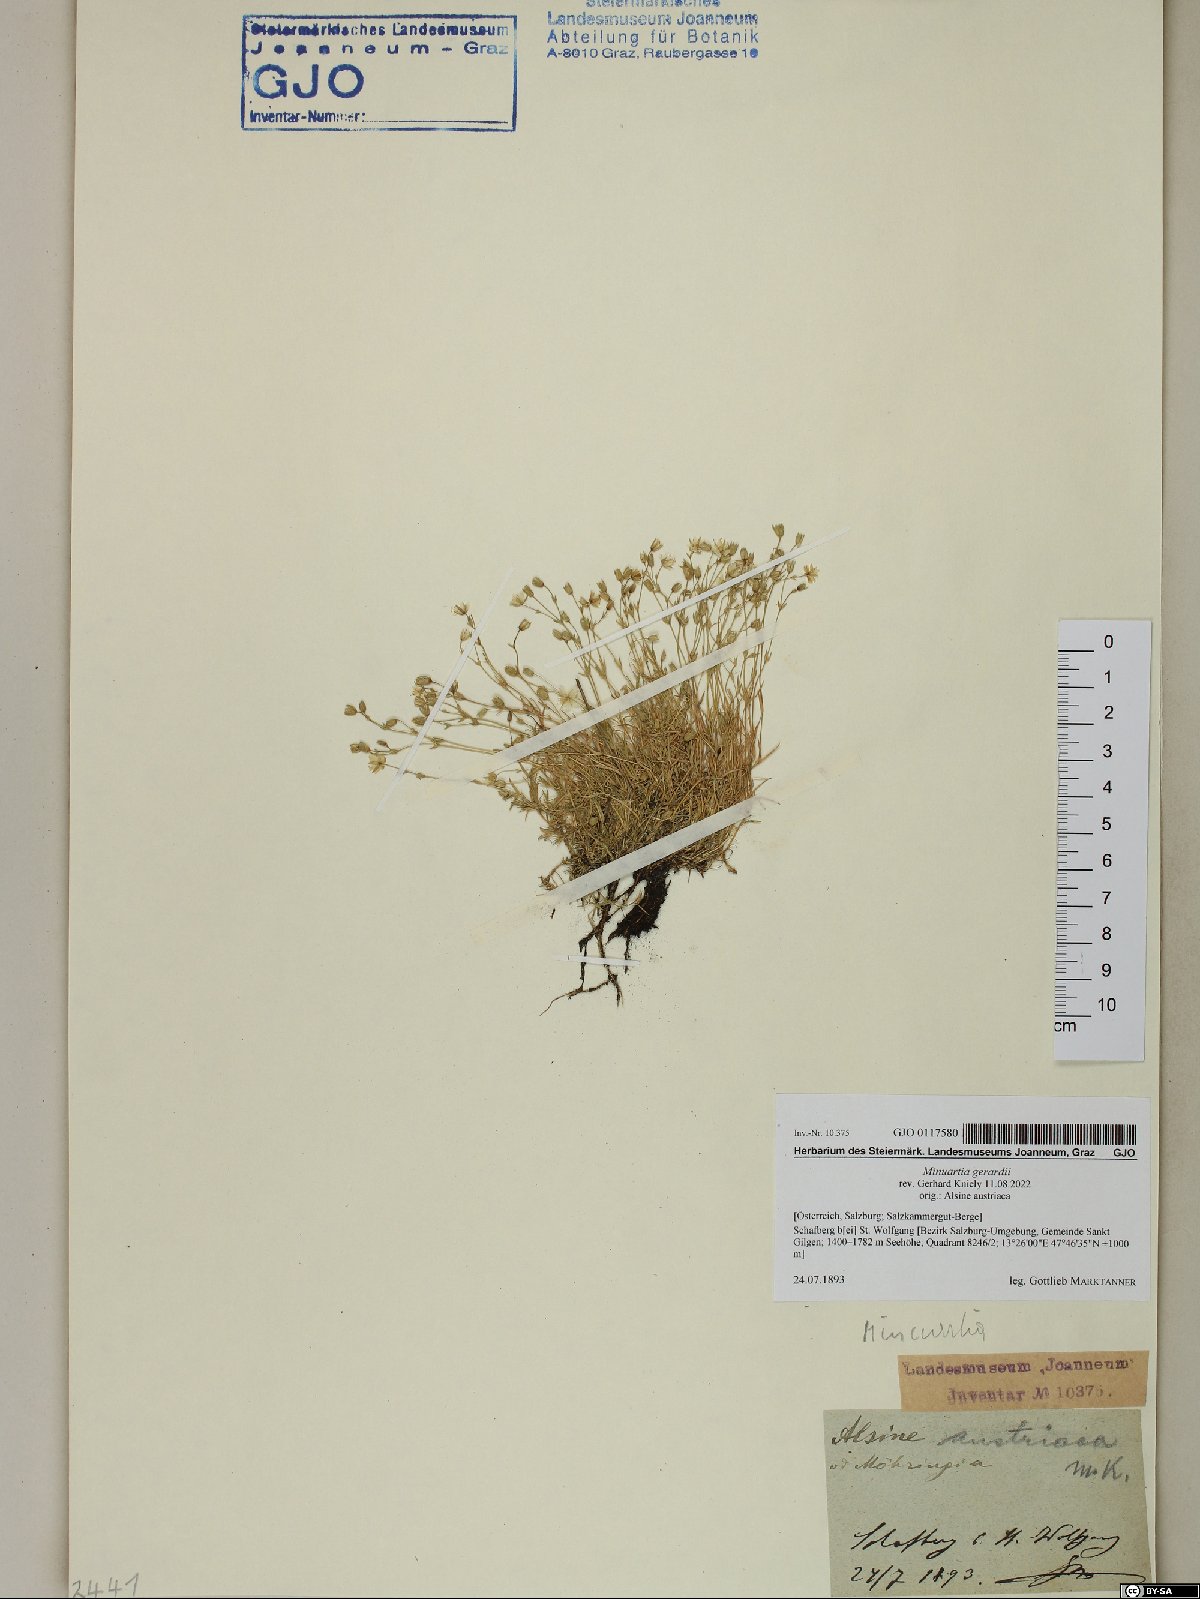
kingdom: Plantae
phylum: Tracheophyta
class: Magnoliopsida
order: Caryophyllales
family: Caryophyllaceae
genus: Sabulina
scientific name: Sabulina verna
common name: Spring sandwort
